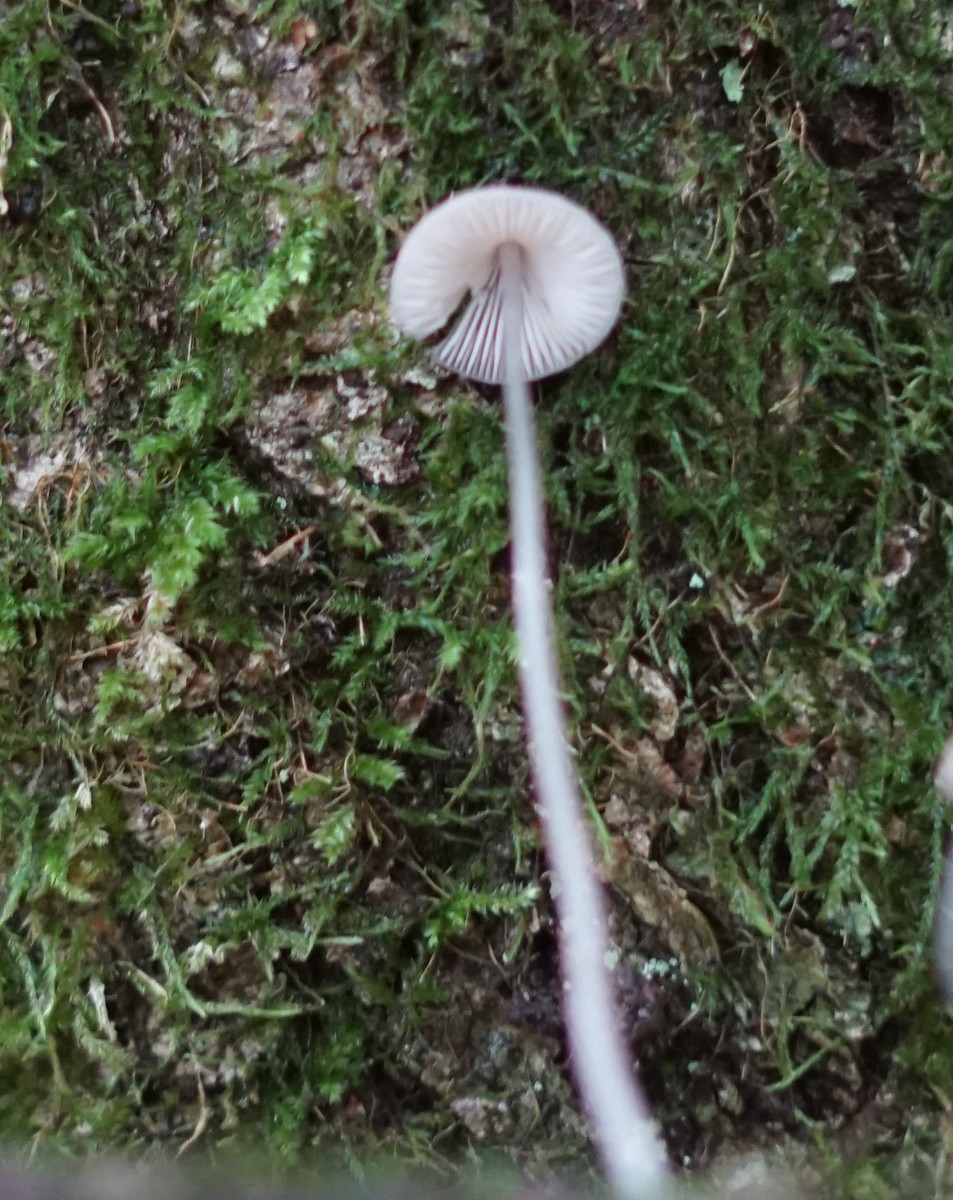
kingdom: Fungi
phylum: Basidiomycota
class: Agaricomycetes
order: Agaricales
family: Mycenaceae
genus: Mycena
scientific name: Mycena vitilis
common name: blankstokket huesvamp
